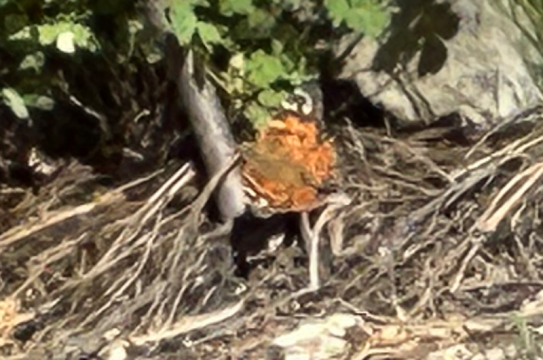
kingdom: Animalia
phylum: Arthropoda
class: Insecta
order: Lepidoptera
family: Nymphalidae
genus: Vanessa
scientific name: Vanessa virginiensis
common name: American Lady
